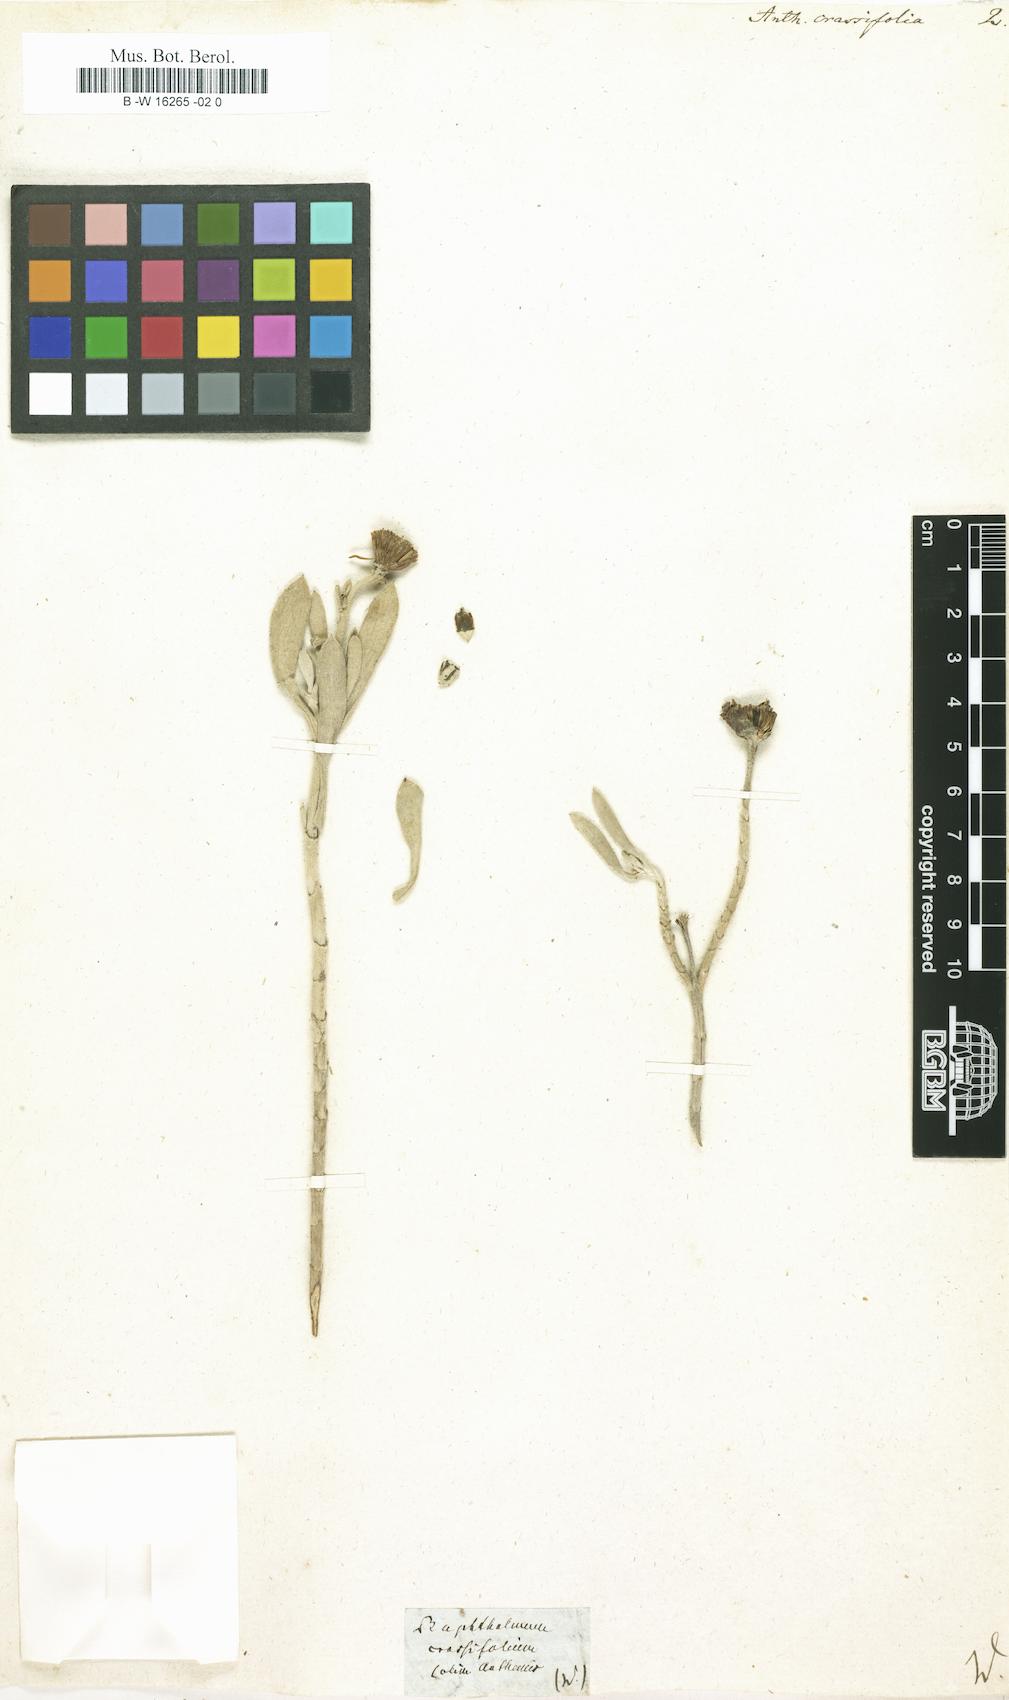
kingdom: Plantae
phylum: Tracheophyta
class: Magnoliopsida
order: Asterales
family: Asteraceae
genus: Borrichia
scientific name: Borrichia arborescens
